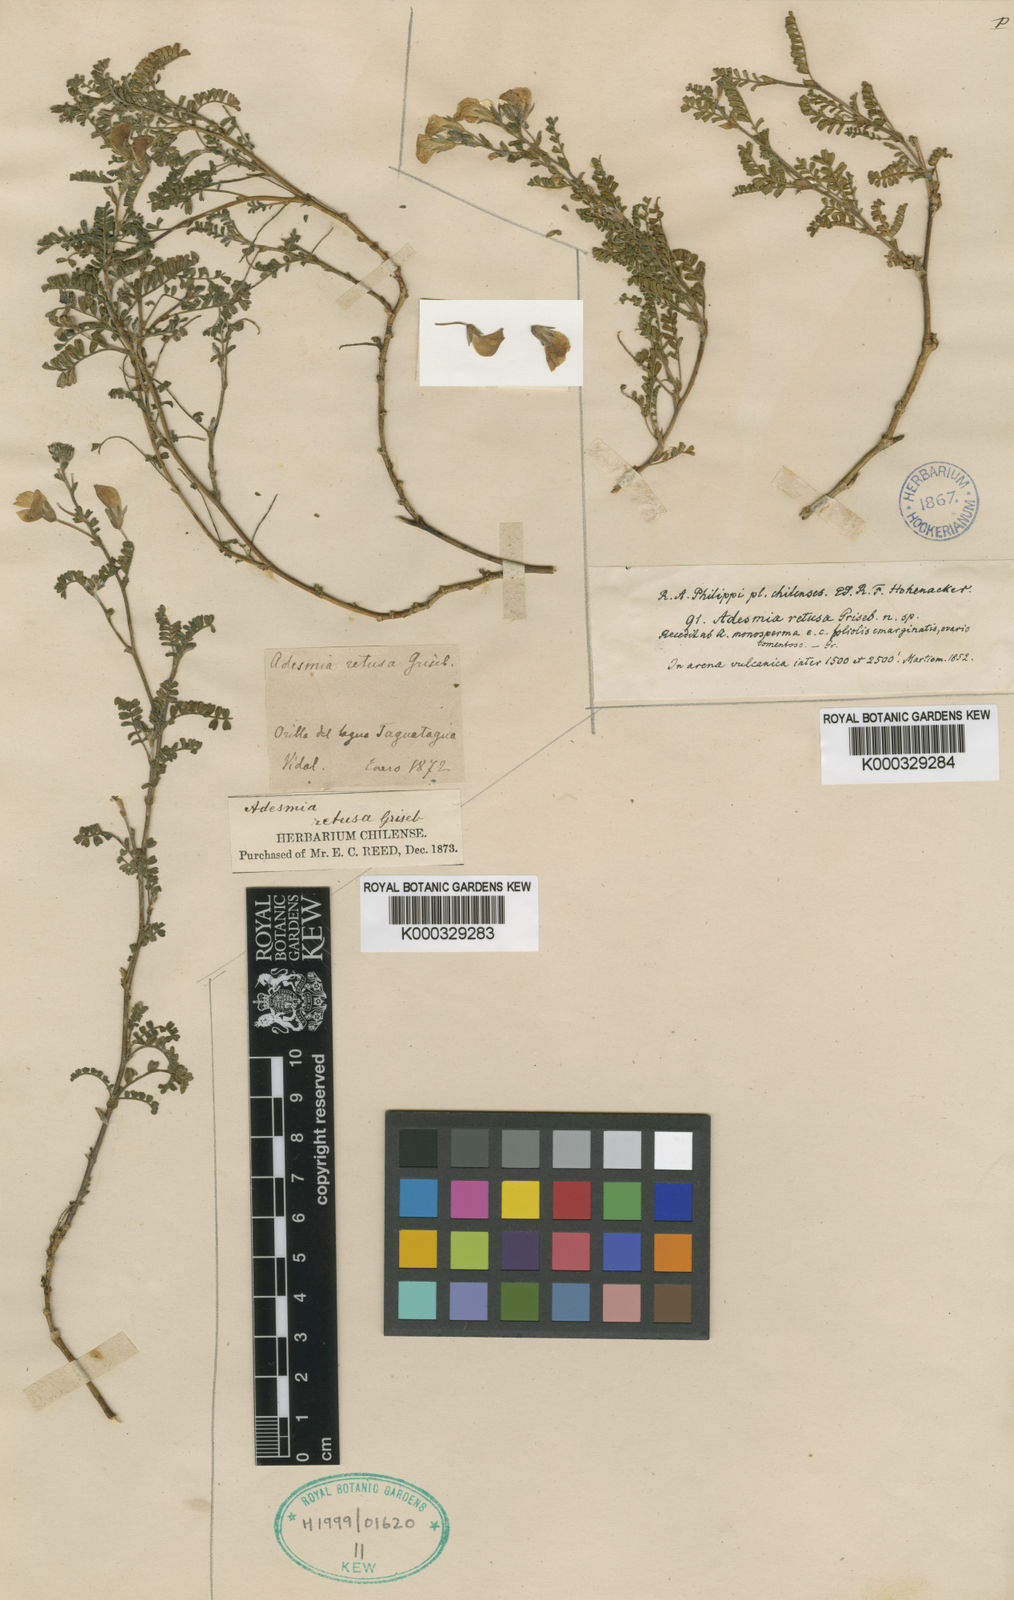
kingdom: Plantae
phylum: Tracheophyta
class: Magnoliopsida
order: Fabales
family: Fabaceae
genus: Adesmia
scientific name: Adesmia retusa
